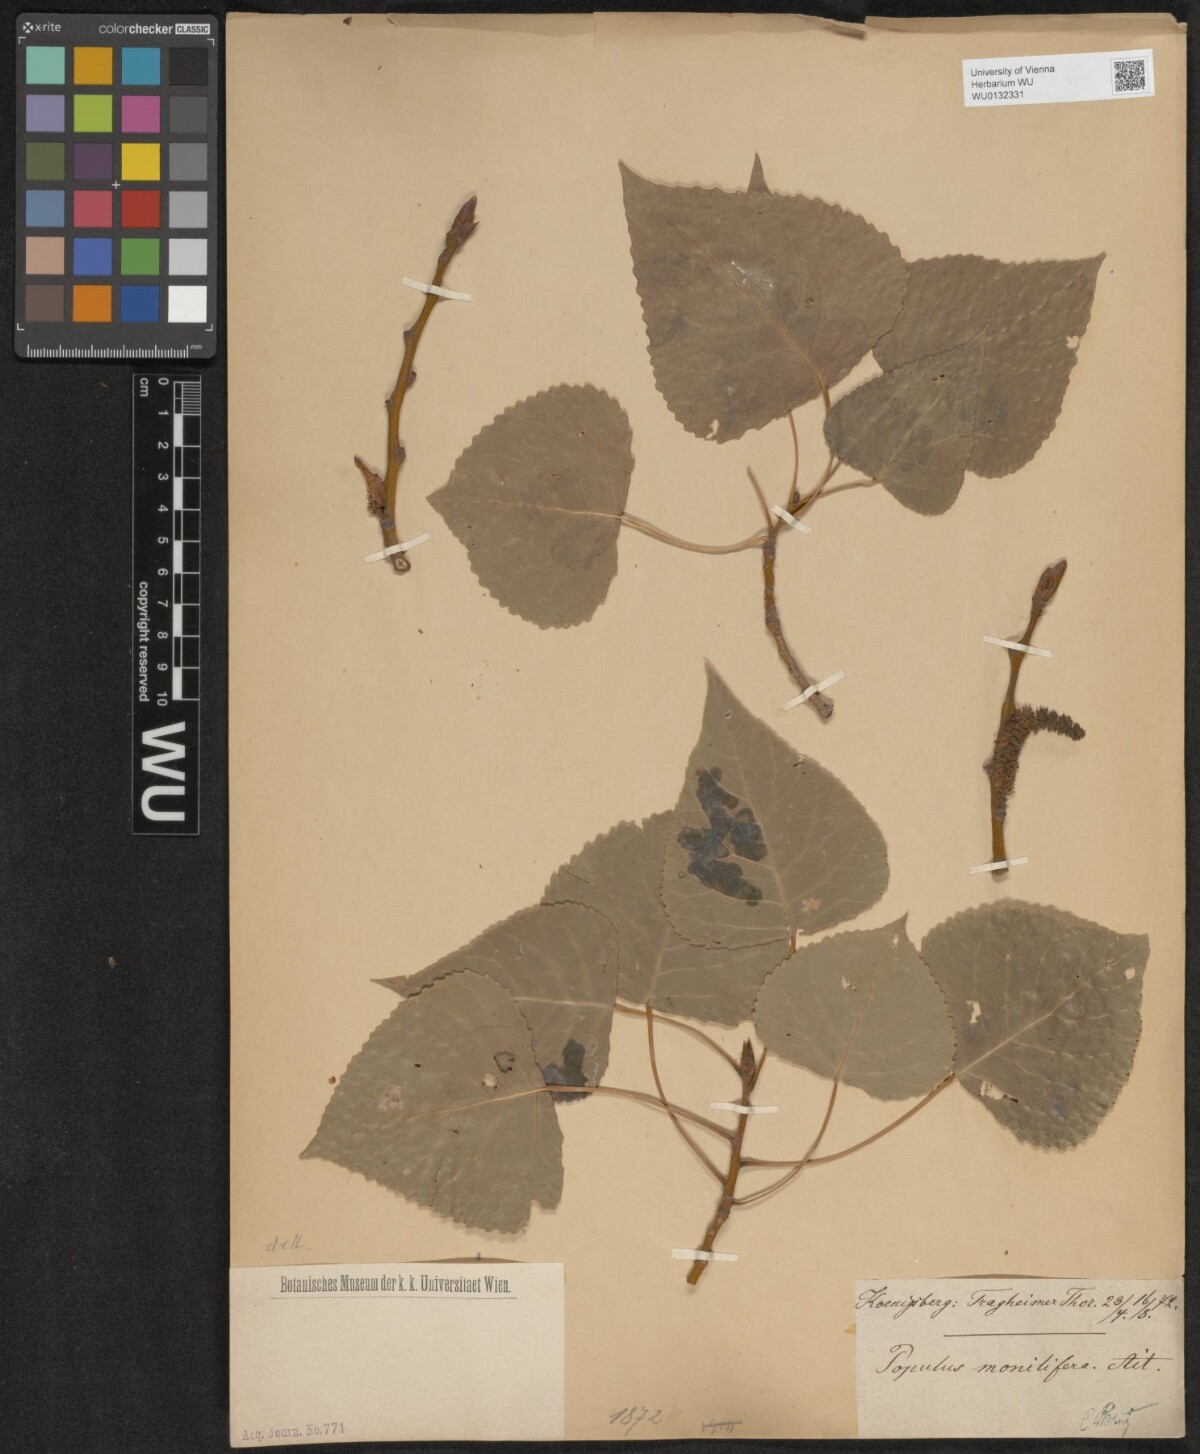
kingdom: Plantae
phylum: Tracheophyta
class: Magnoliopsida
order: Malpighiales
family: Salicaceae
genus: Populus
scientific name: Populus deltoides
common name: Eastern cottonwood
